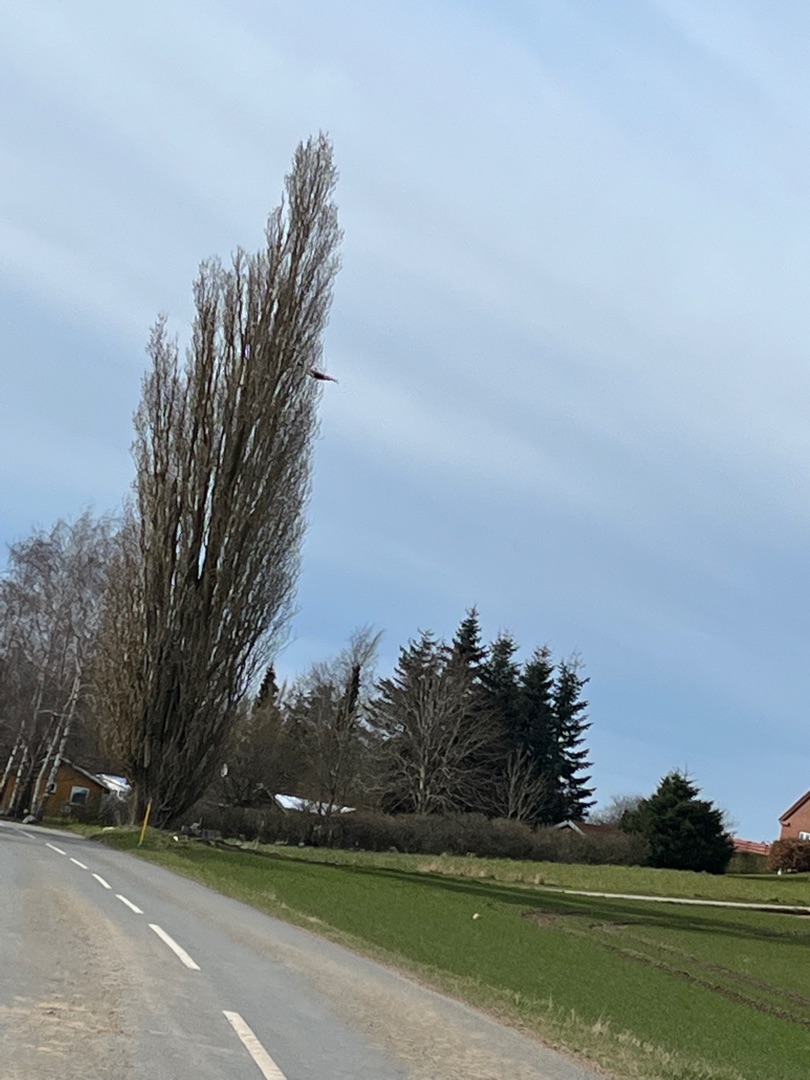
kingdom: Animalia
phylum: Chordata
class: Aves
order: Accipitriformes
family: Accipitridae
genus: Buteo
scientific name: Buteo lagopus
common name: Fjeldvåge
